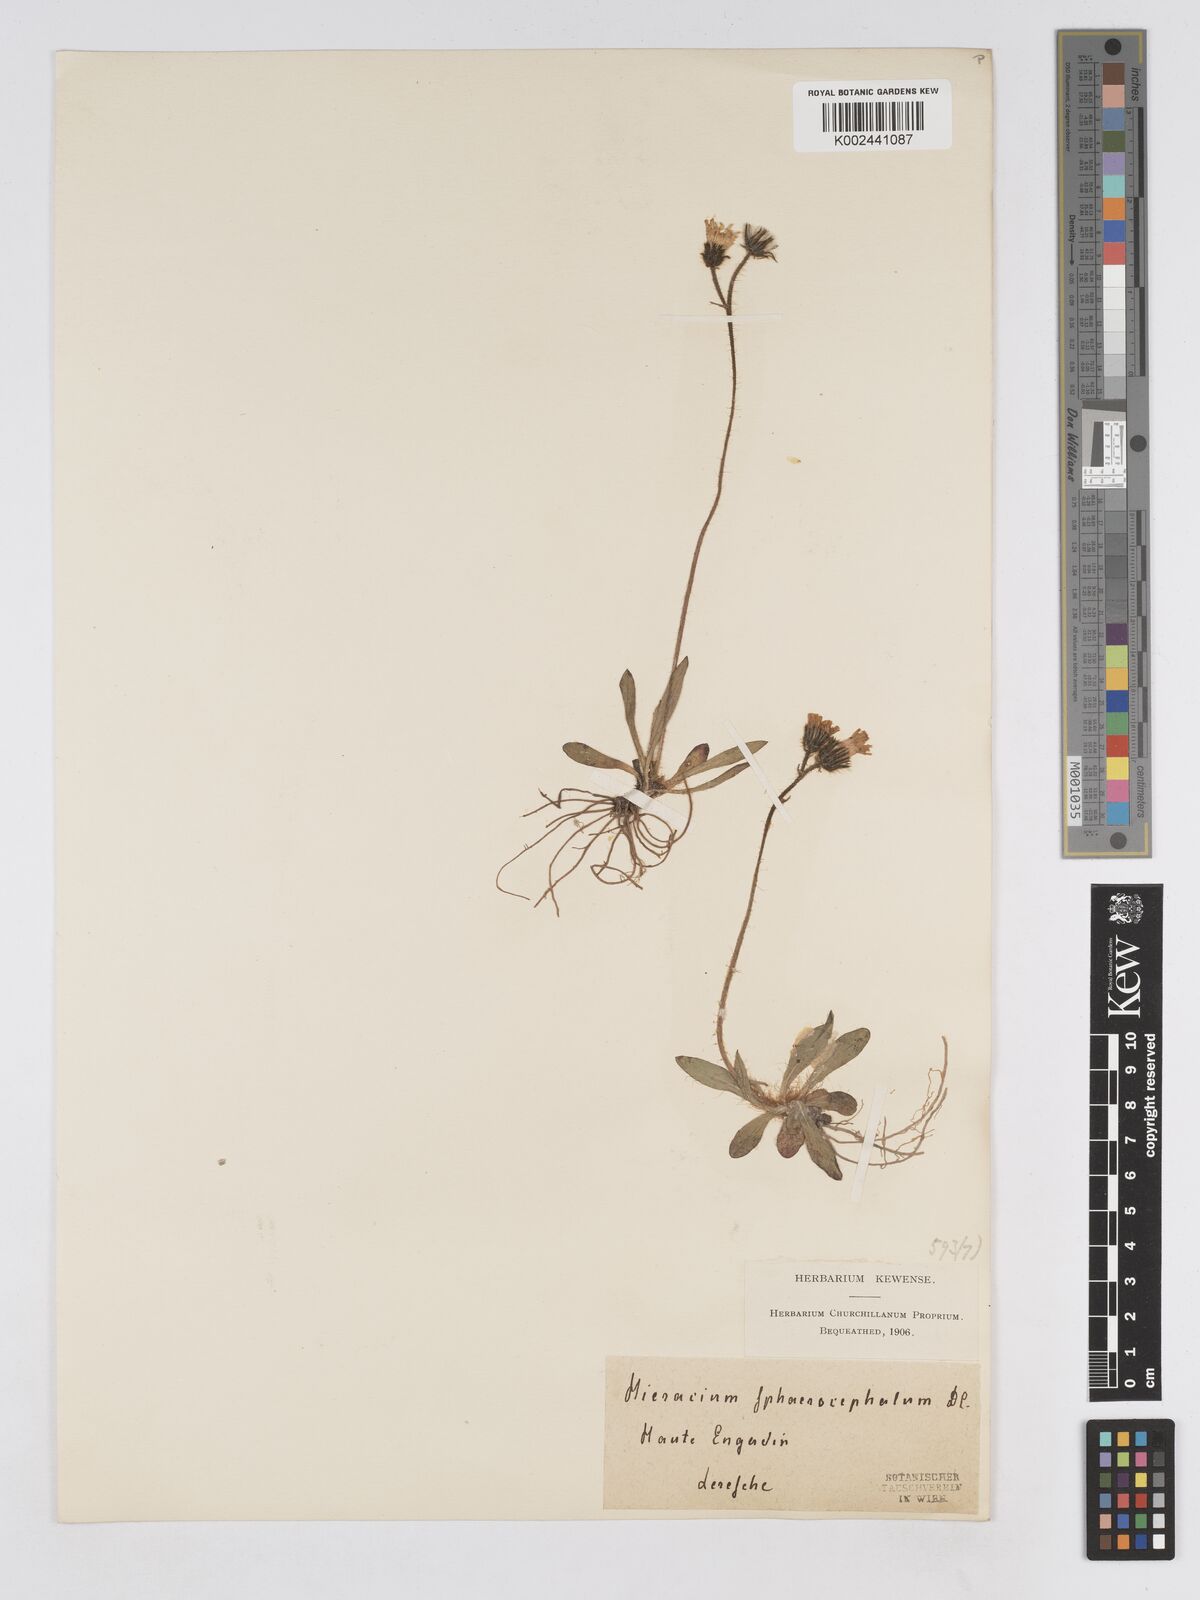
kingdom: Plantae
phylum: Tracheophyta
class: Magnoliopsida
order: Asterales
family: Asteraceae
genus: Pilosella
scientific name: Pilosella sphaerocephala
